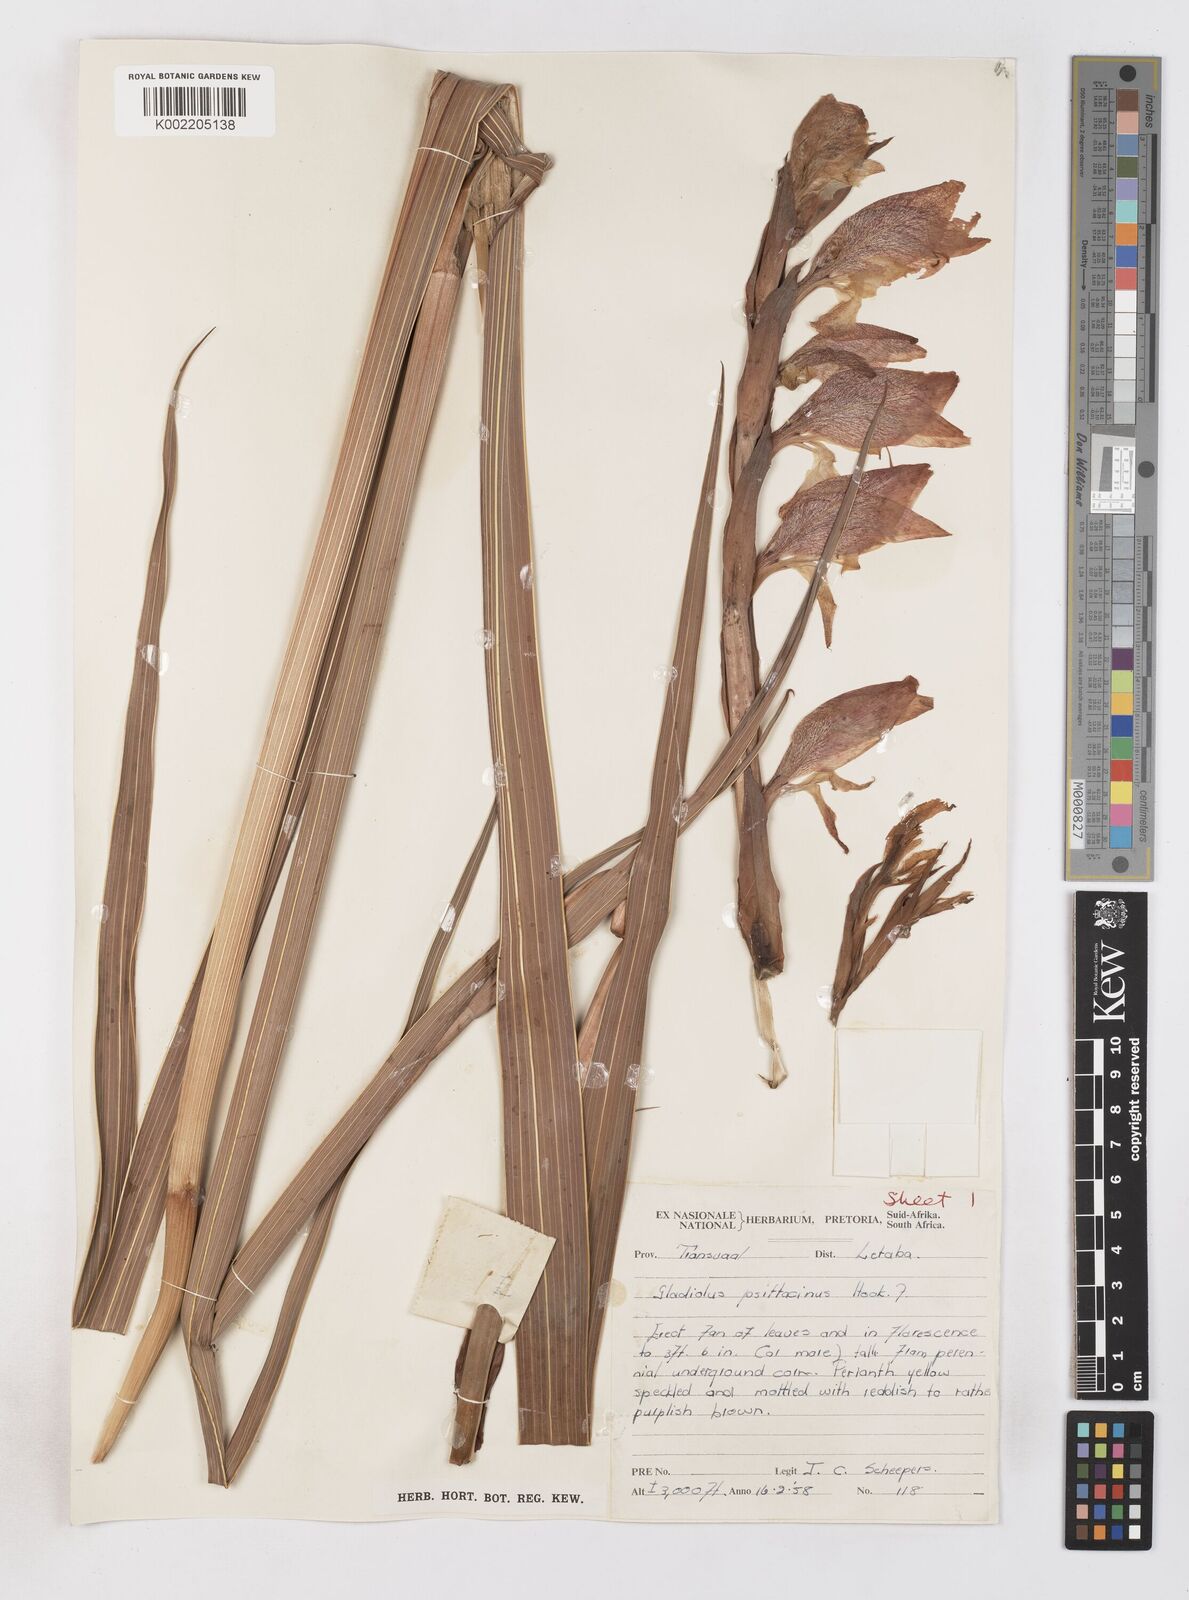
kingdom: Plantae
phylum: Tracheophyta
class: Liliopsida
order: Asparagales
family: Iridaceae
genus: Gladiolus
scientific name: Gladiolus dalenii
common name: Cornflag
